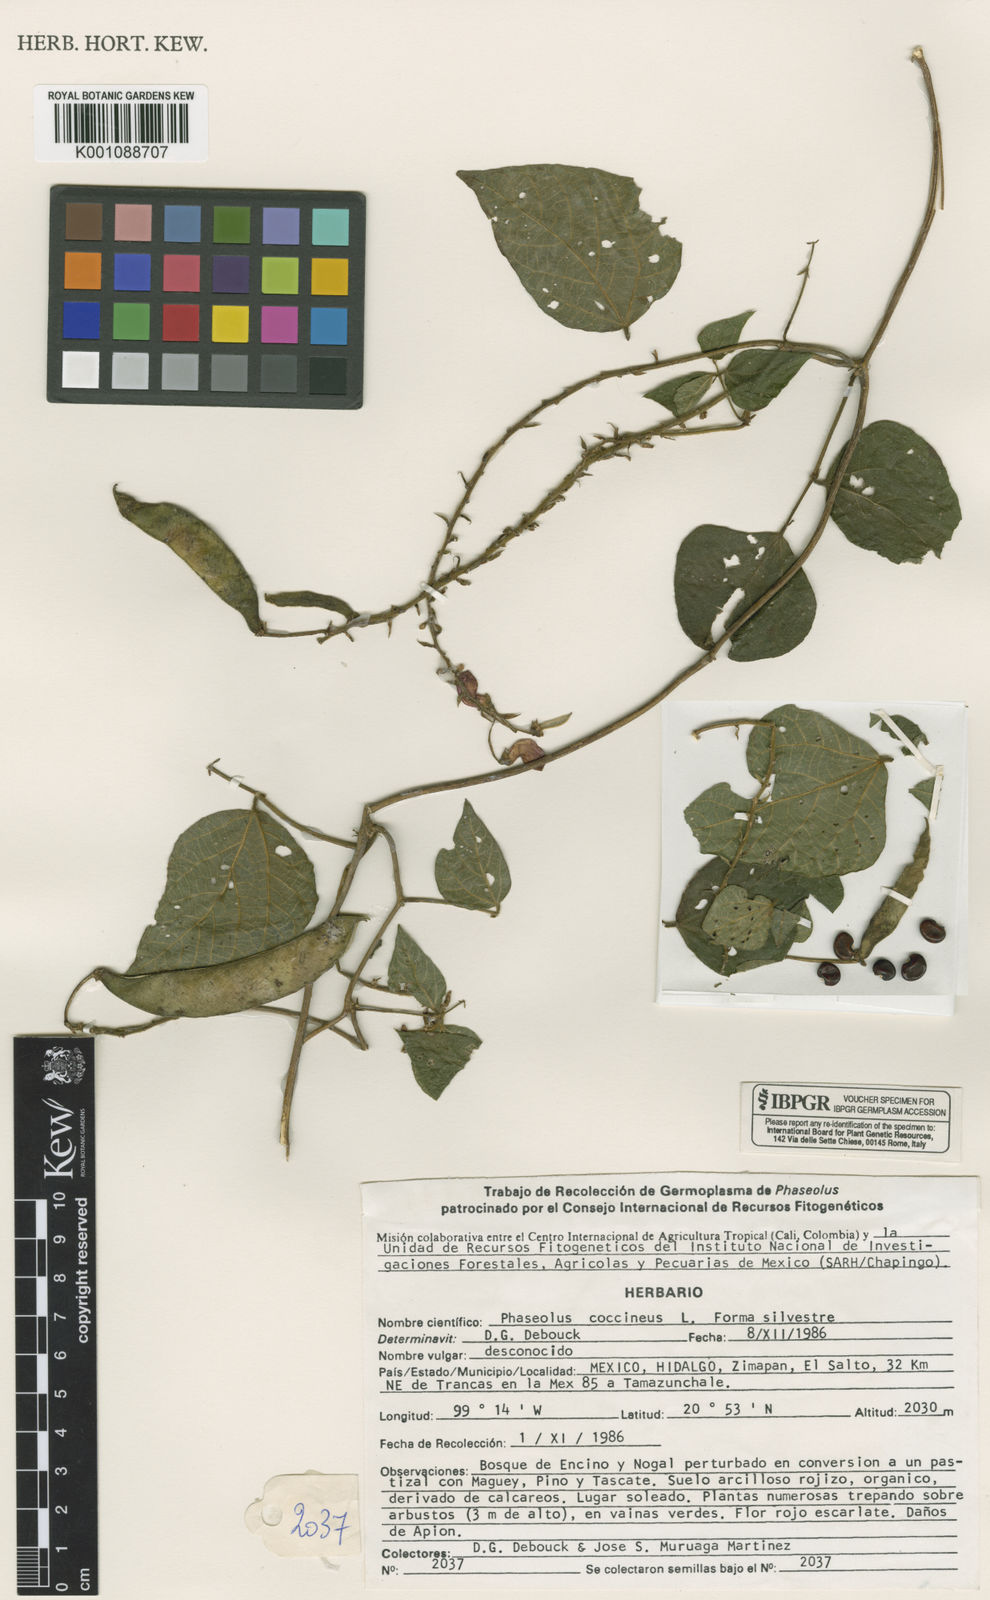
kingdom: Plantae
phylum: Tracheophyta
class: Magnoliopsida
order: Fabales
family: Fabaceae
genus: Phaseolus
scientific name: Phaseolus coccineus
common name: Runner bean
